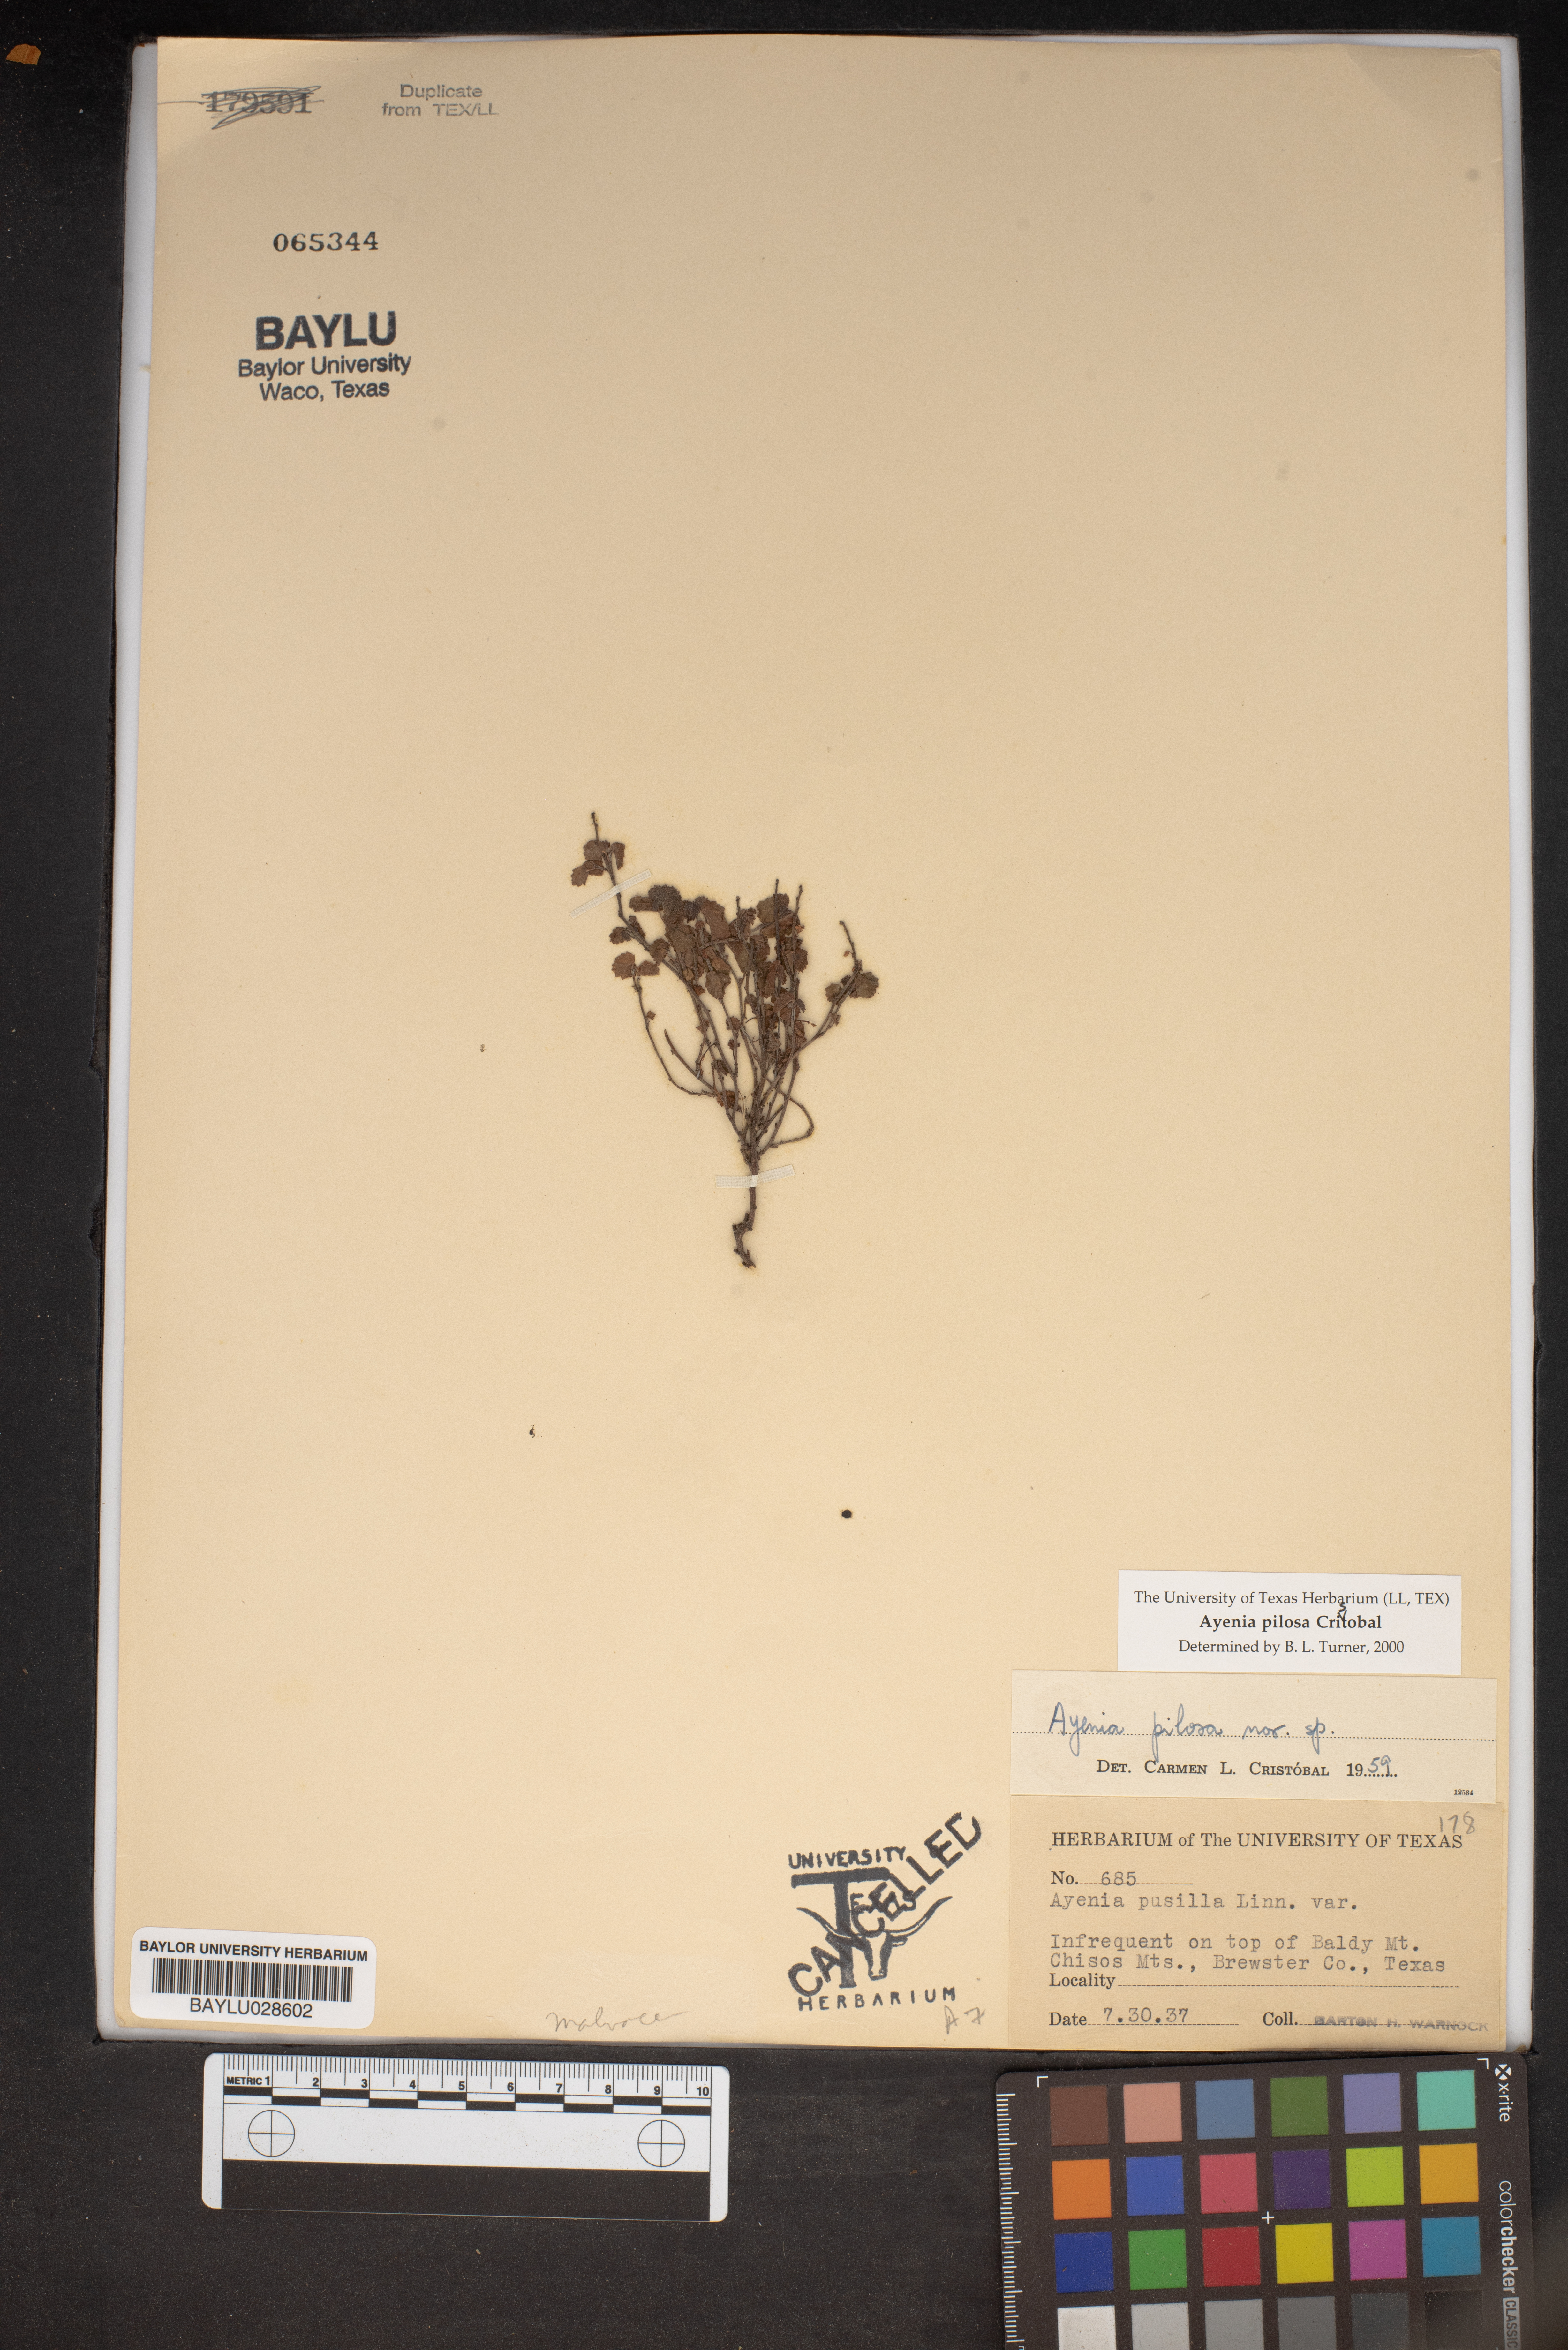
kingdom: Plantae
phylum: Tracheophyta
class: Magnoliopsida
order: Malvales
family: Malvaceae
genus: Ayenia
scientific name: Ayenia pilosa
